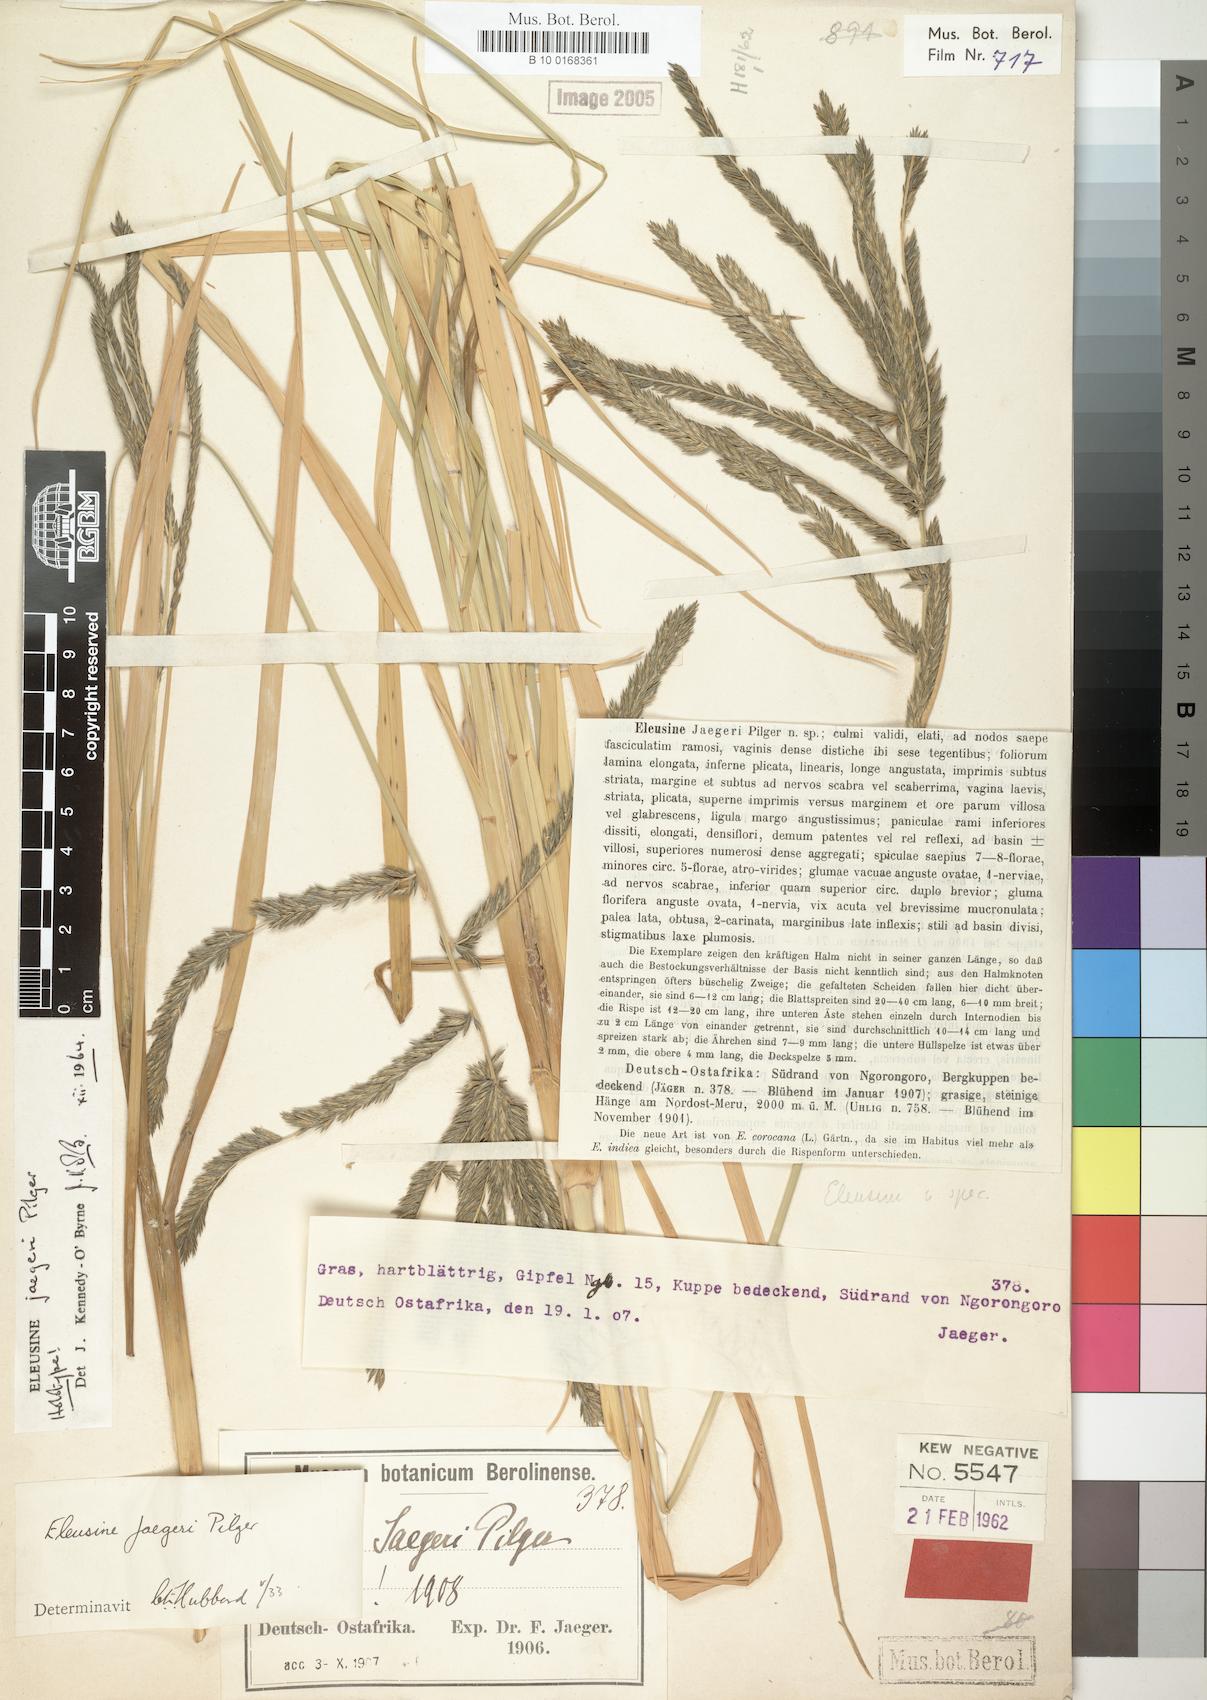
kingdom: Plantae
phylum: Tracheophyta
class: Liliopsida
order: Poales
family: Poaceae
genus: Eleusine
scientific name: Eleusine jaegeri
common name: Manyatta grass
